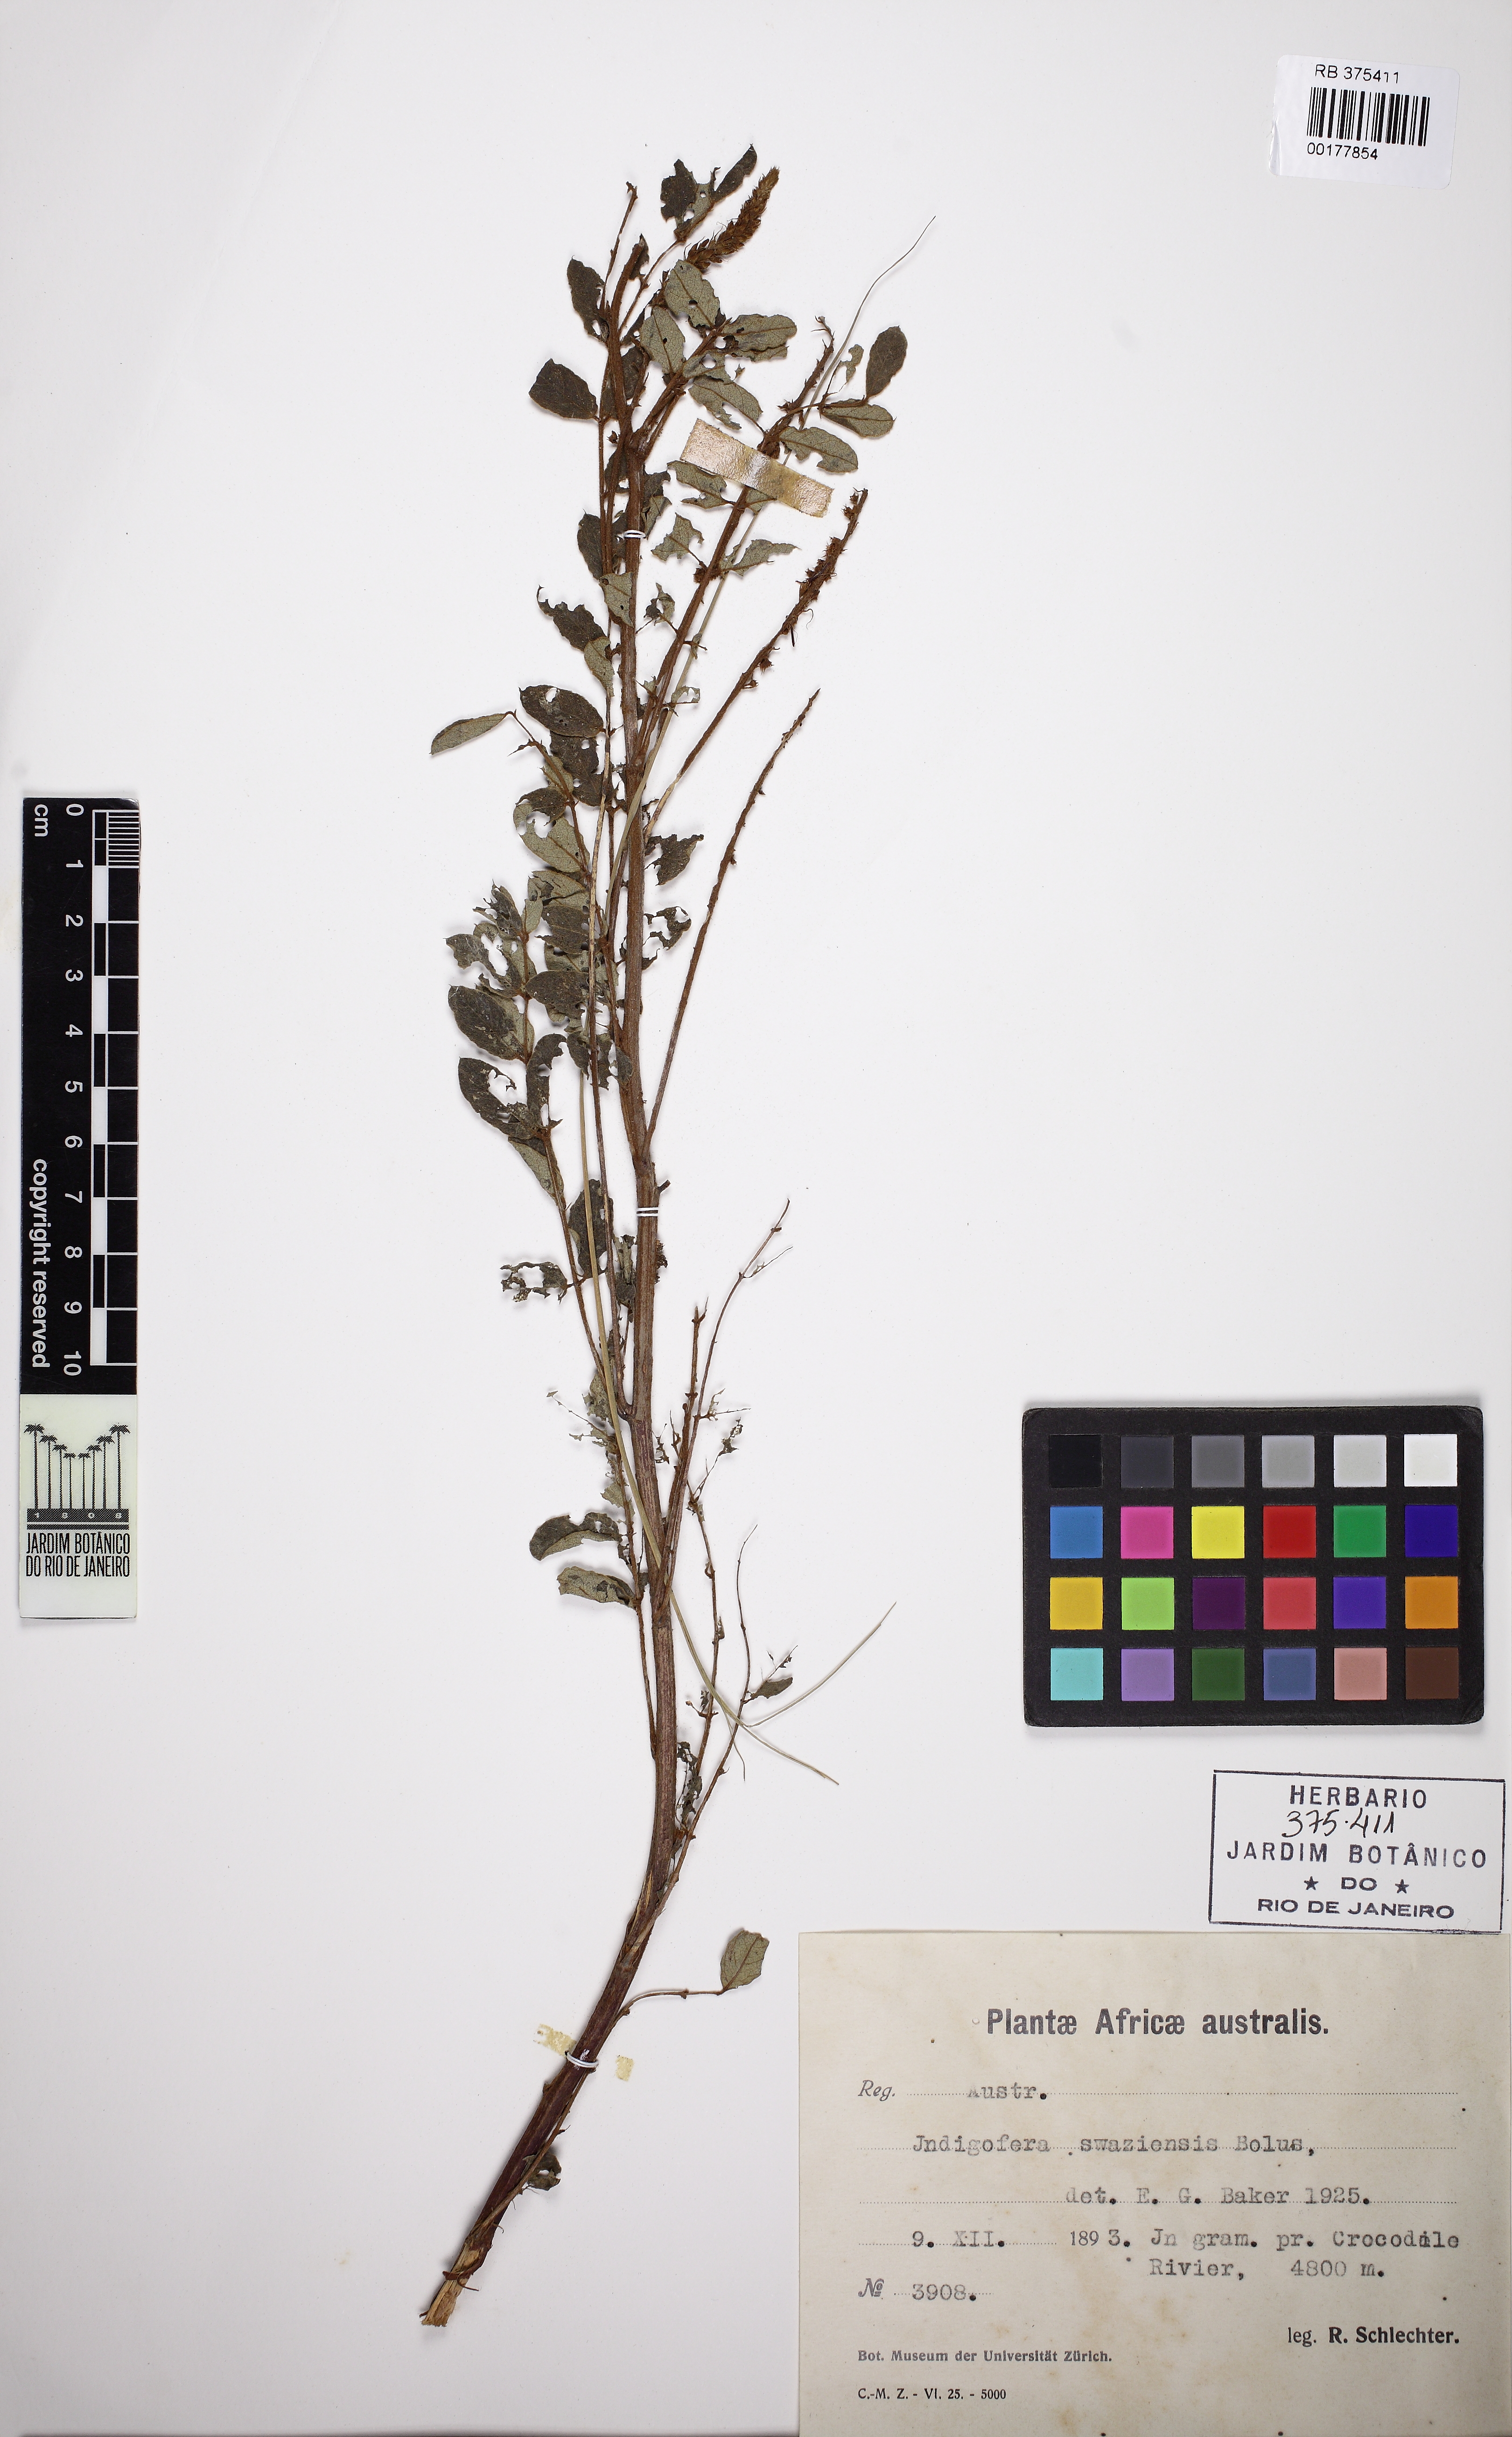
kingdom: Plantae
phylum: Tracheophyta
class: Magnoliopsida
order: Fabales
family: Fabaceae
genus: Indigofera
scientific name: Indigofera swaziensis
